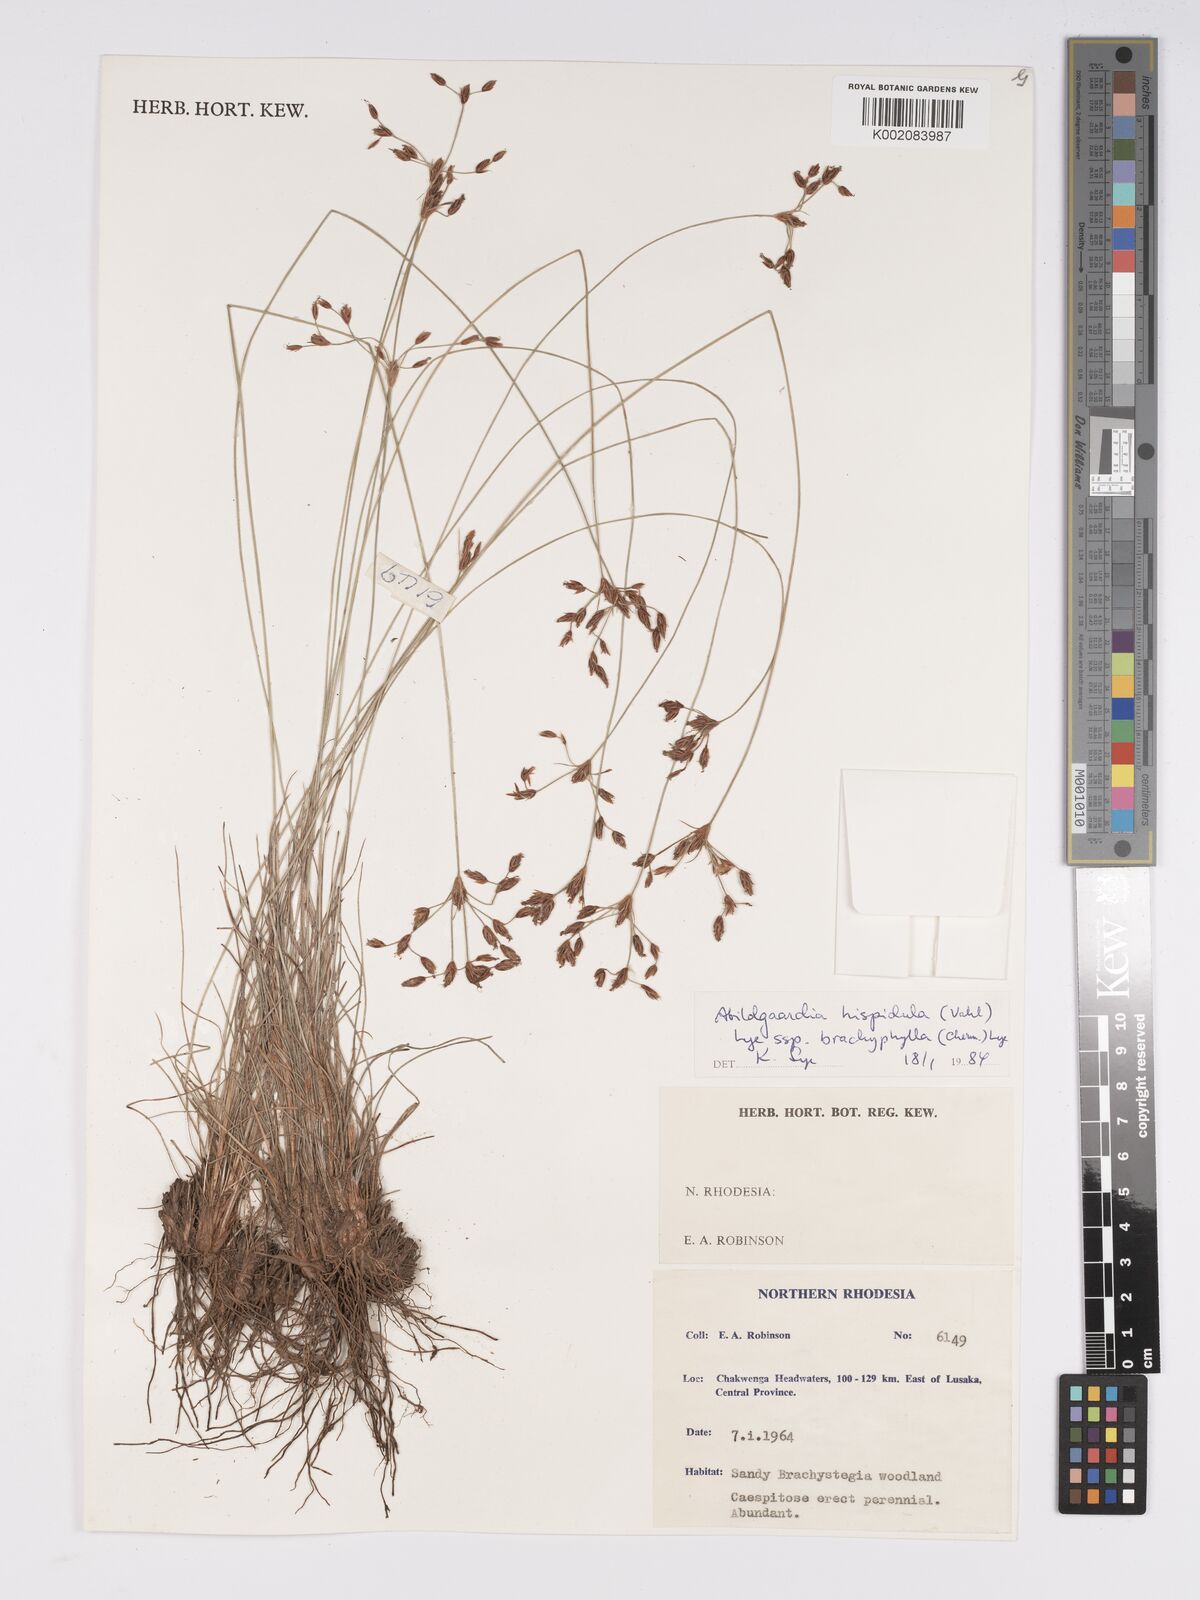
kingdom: Plantae
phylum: Tracheophyta
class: Liliopsida
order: Poales
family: Cyperaceae
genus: Bulbostylis
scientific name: Bulbostylis hispidula
